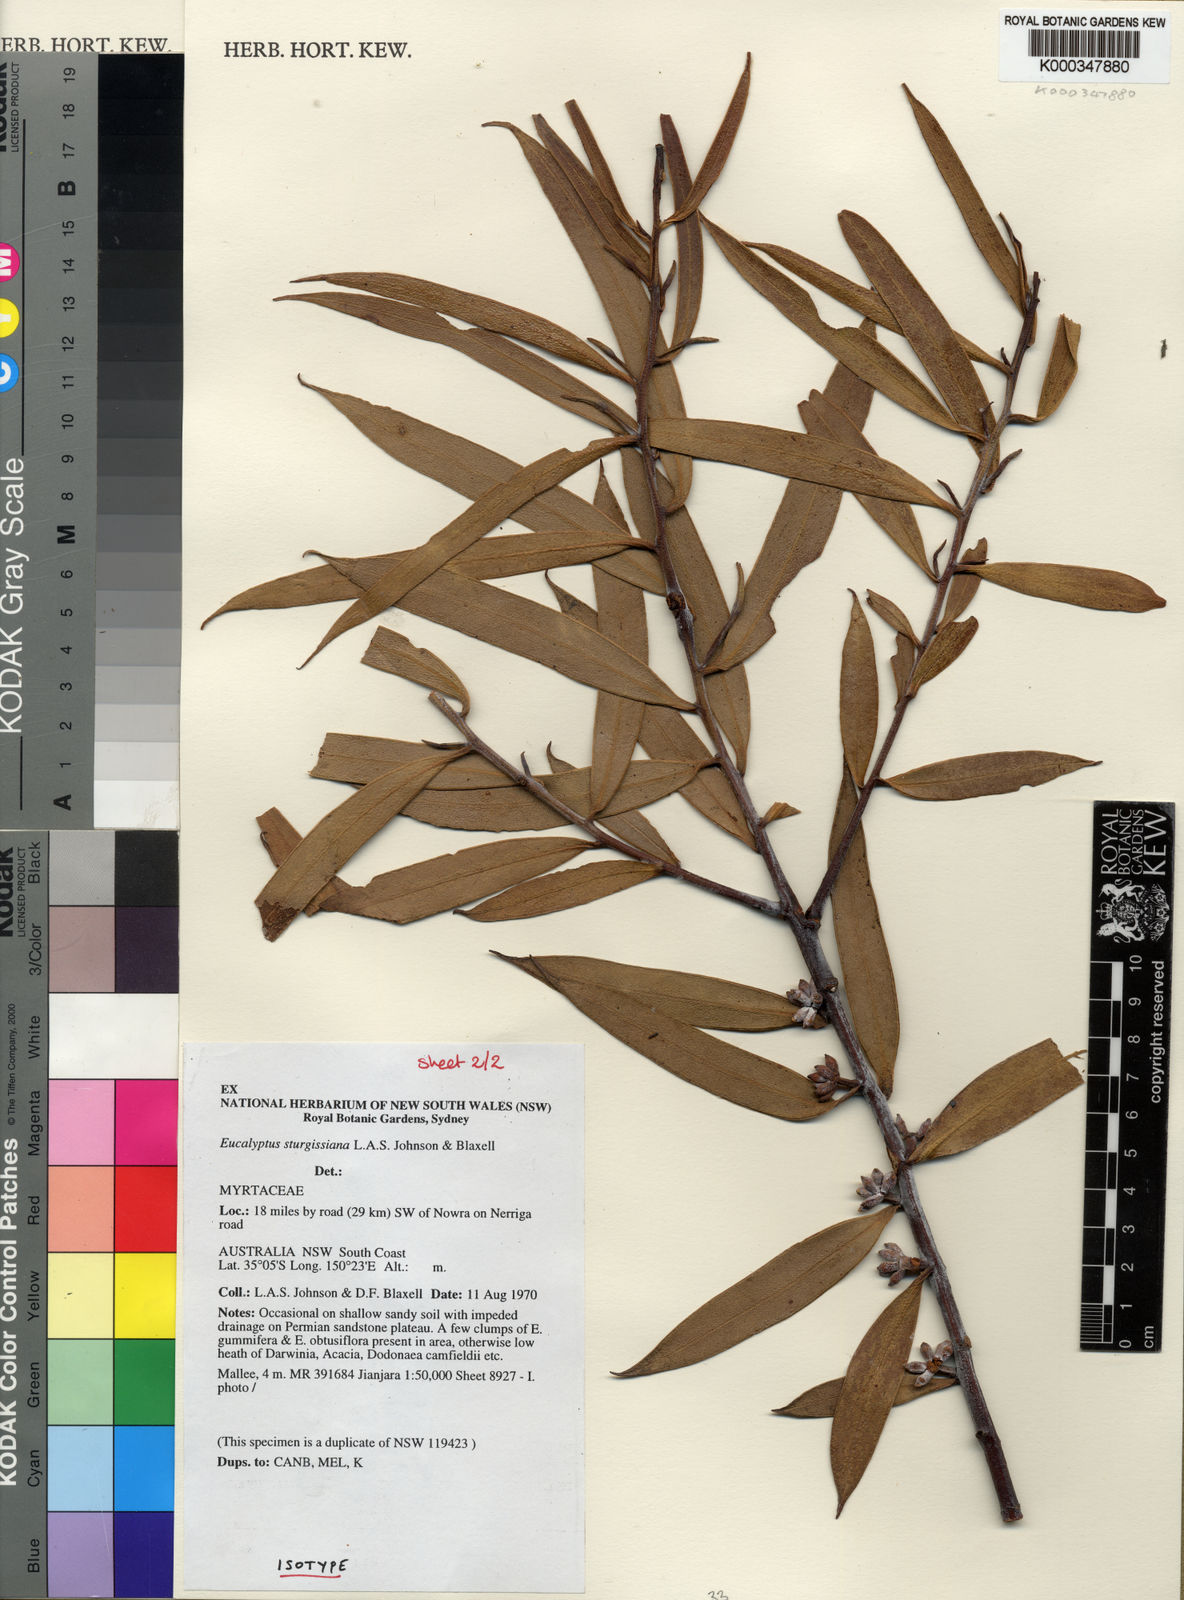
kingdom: Plantae
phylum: Tracheophyta
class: Magnoliopsida
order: Myrtales
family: Myrtaceae
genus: Eucalyptus
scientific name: Eucalyptus sturgissiana
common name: Ettrema mallee
